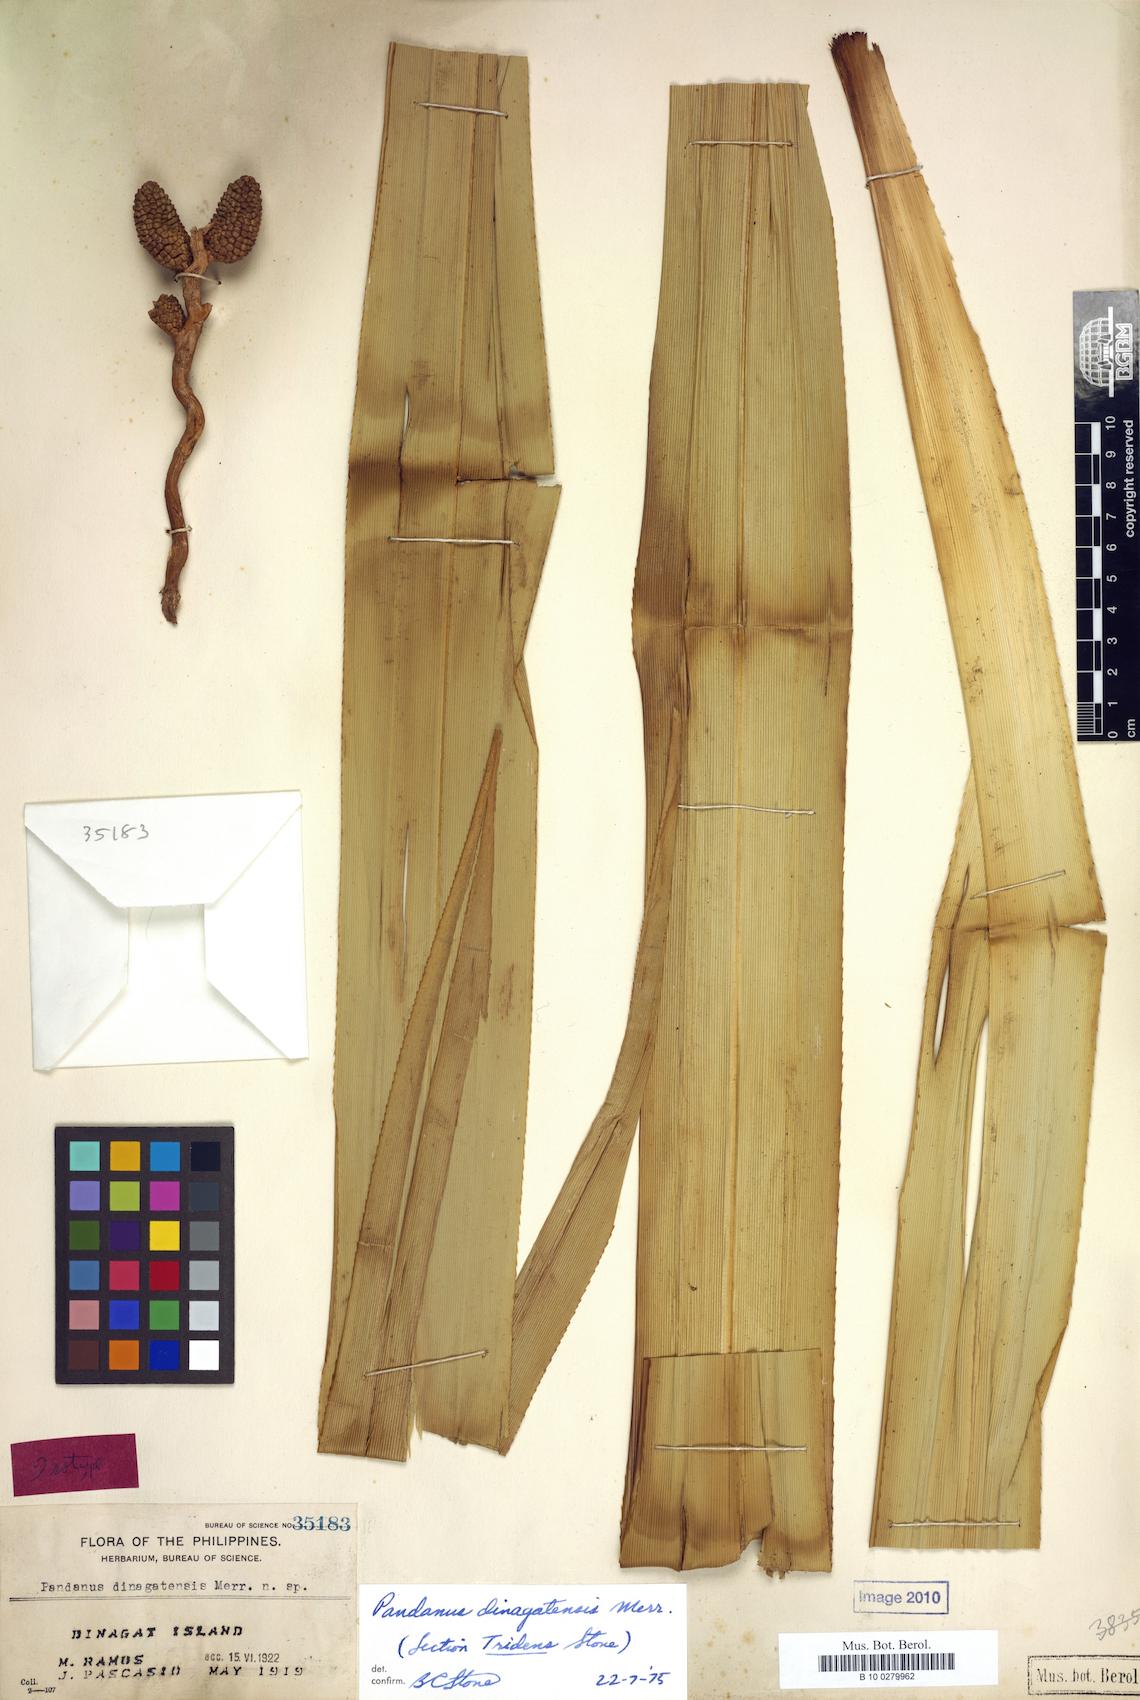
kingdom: Plantae
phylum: Tracheophyta
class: Liliopsida
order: Pandanales
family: Pandanaceae
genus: Pandanus
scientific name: Pandanus dinagatensis
